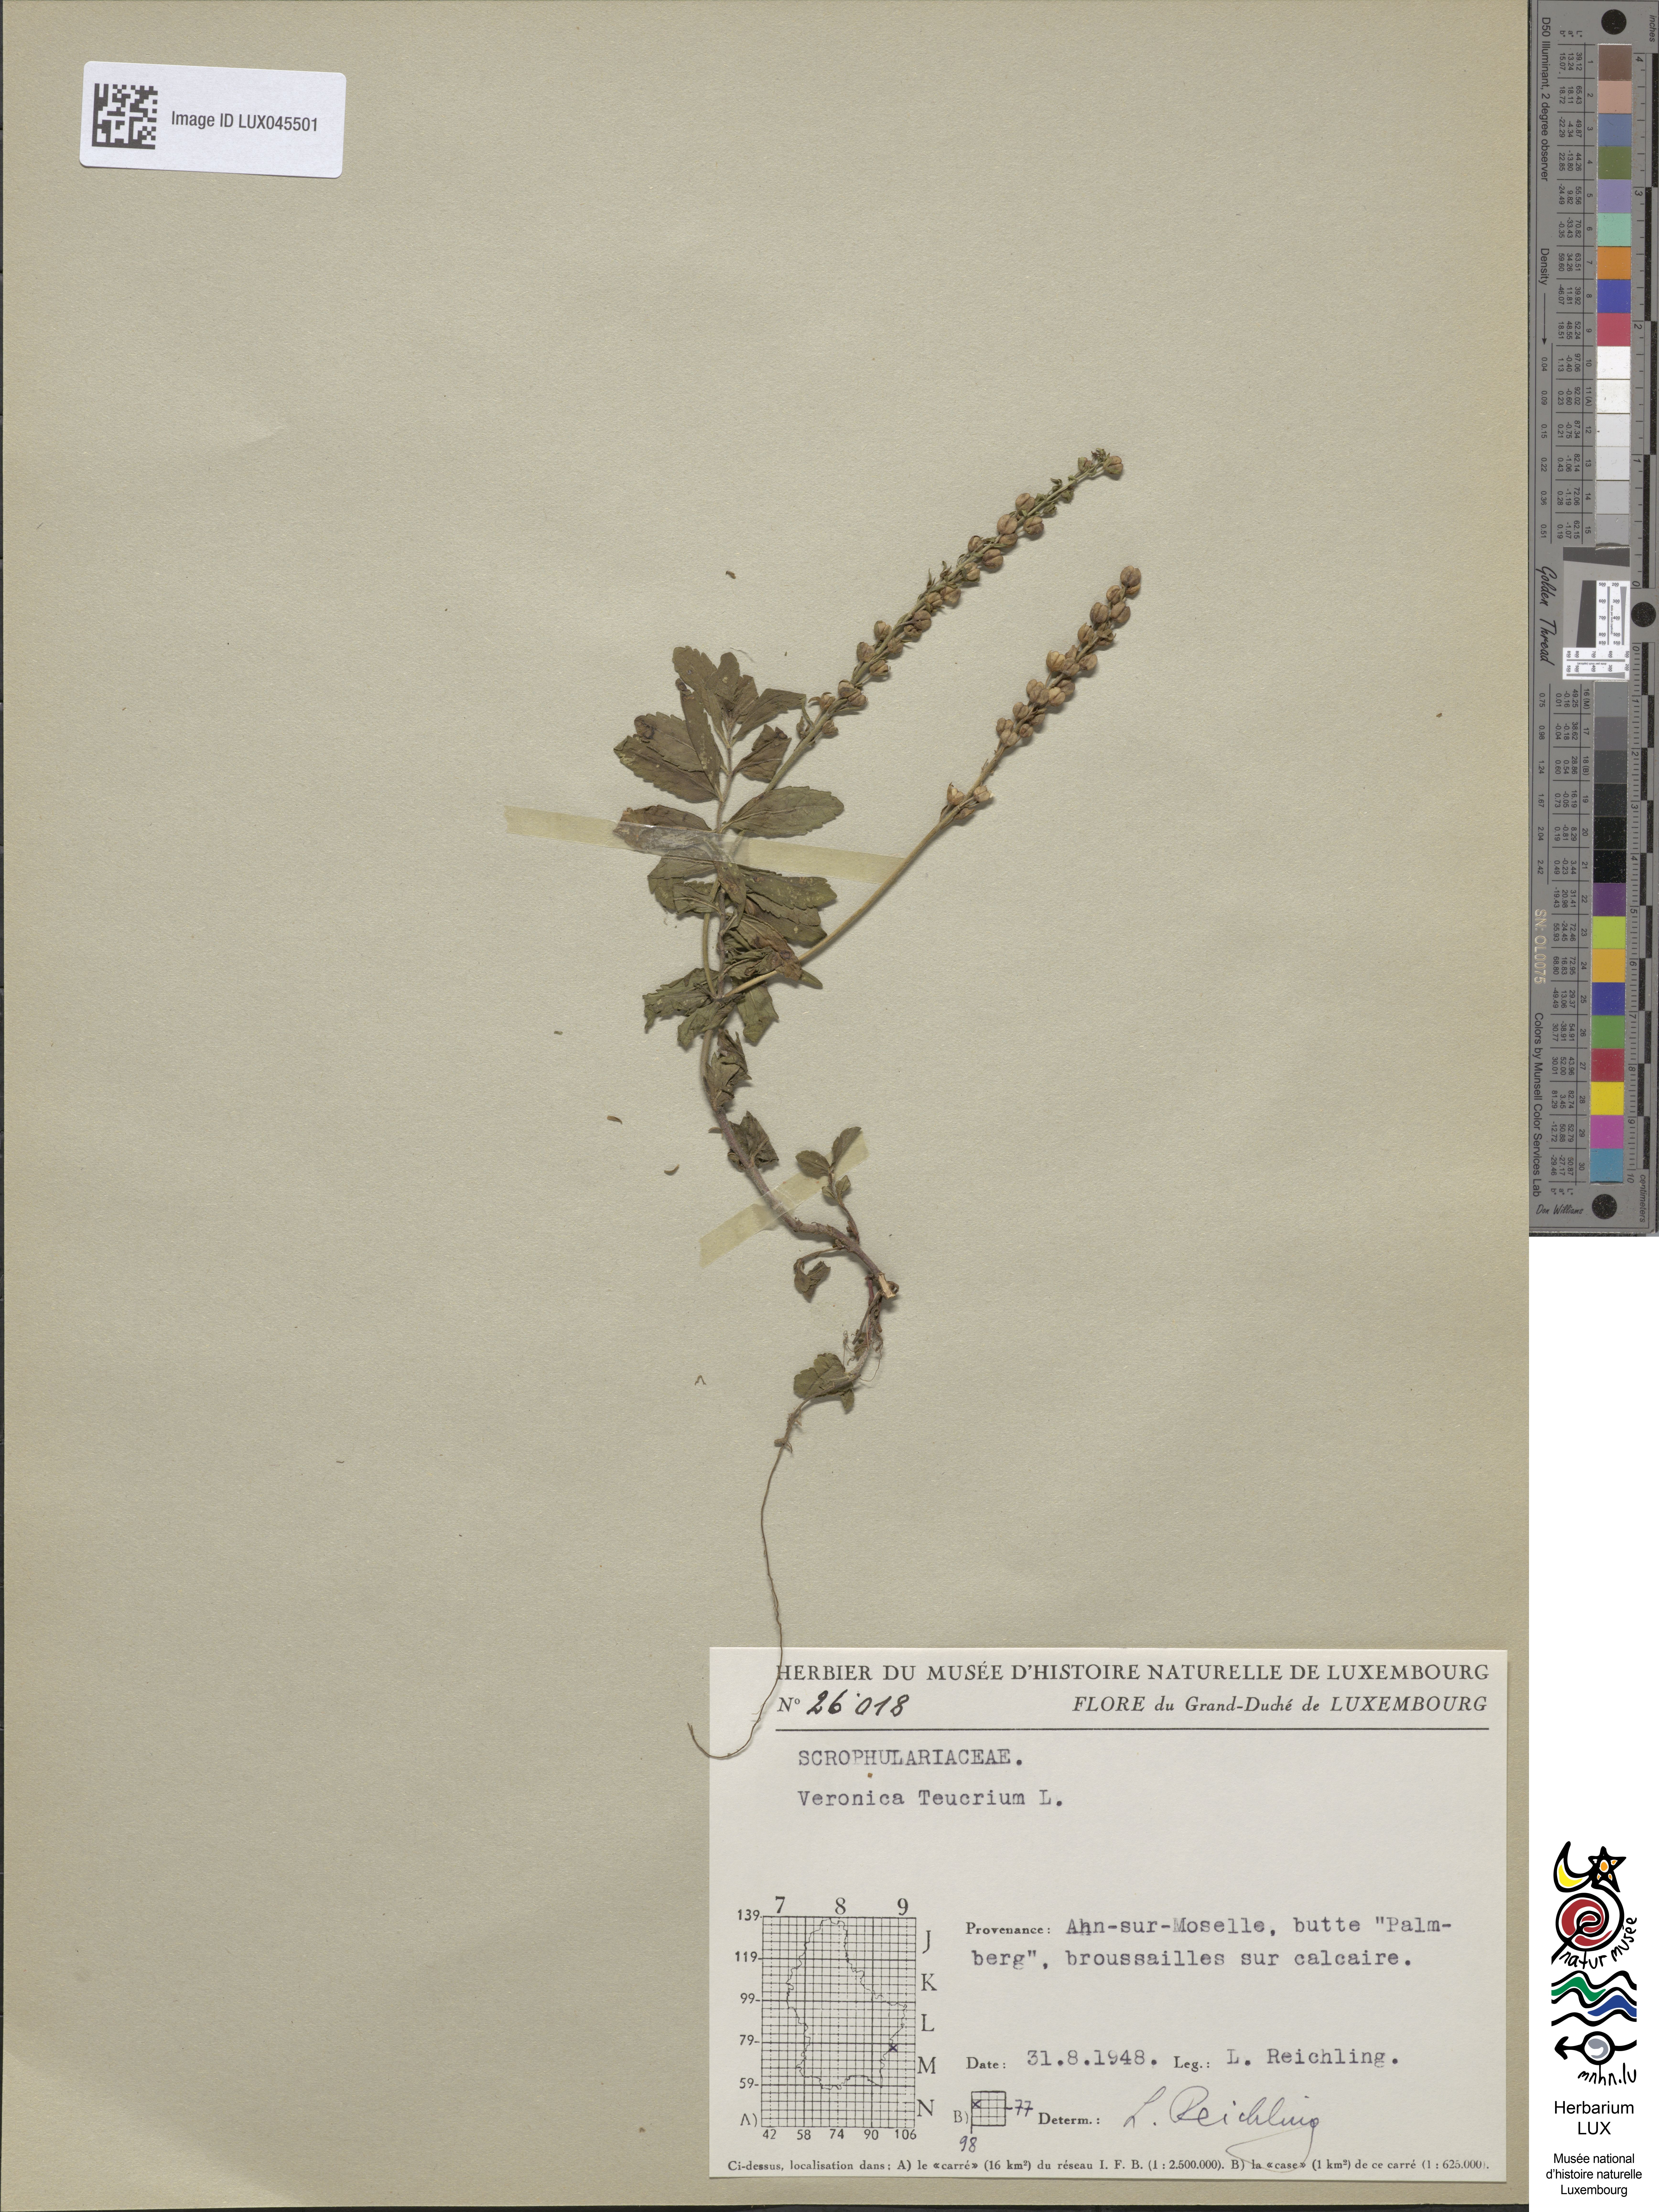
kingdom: Plantae
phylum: Tracheophyta
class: Magnoliopsida
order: Lamiales
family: Plantaginaceae
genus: Veronica
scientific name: Veronica teucrium
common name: Large speedwell
